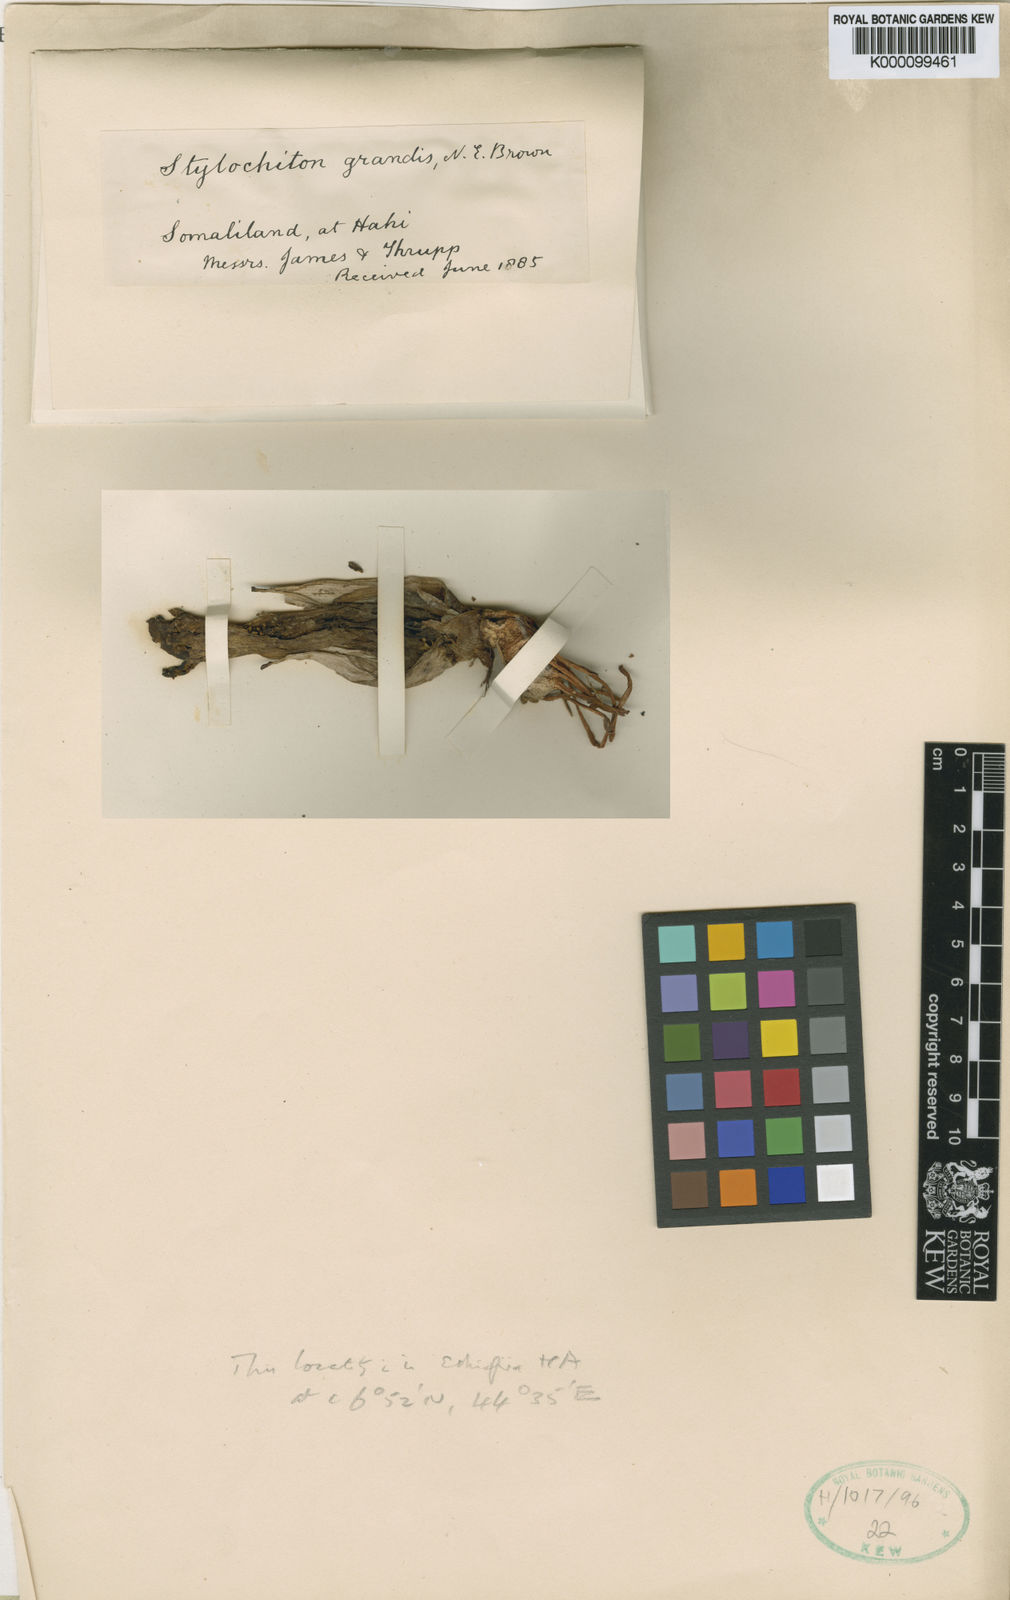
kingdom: Plantae
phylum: Tracheophyta
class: Liliopsida
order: Alismatales
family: Araceae
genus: Stylochaeton
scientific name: Stylochaeton
